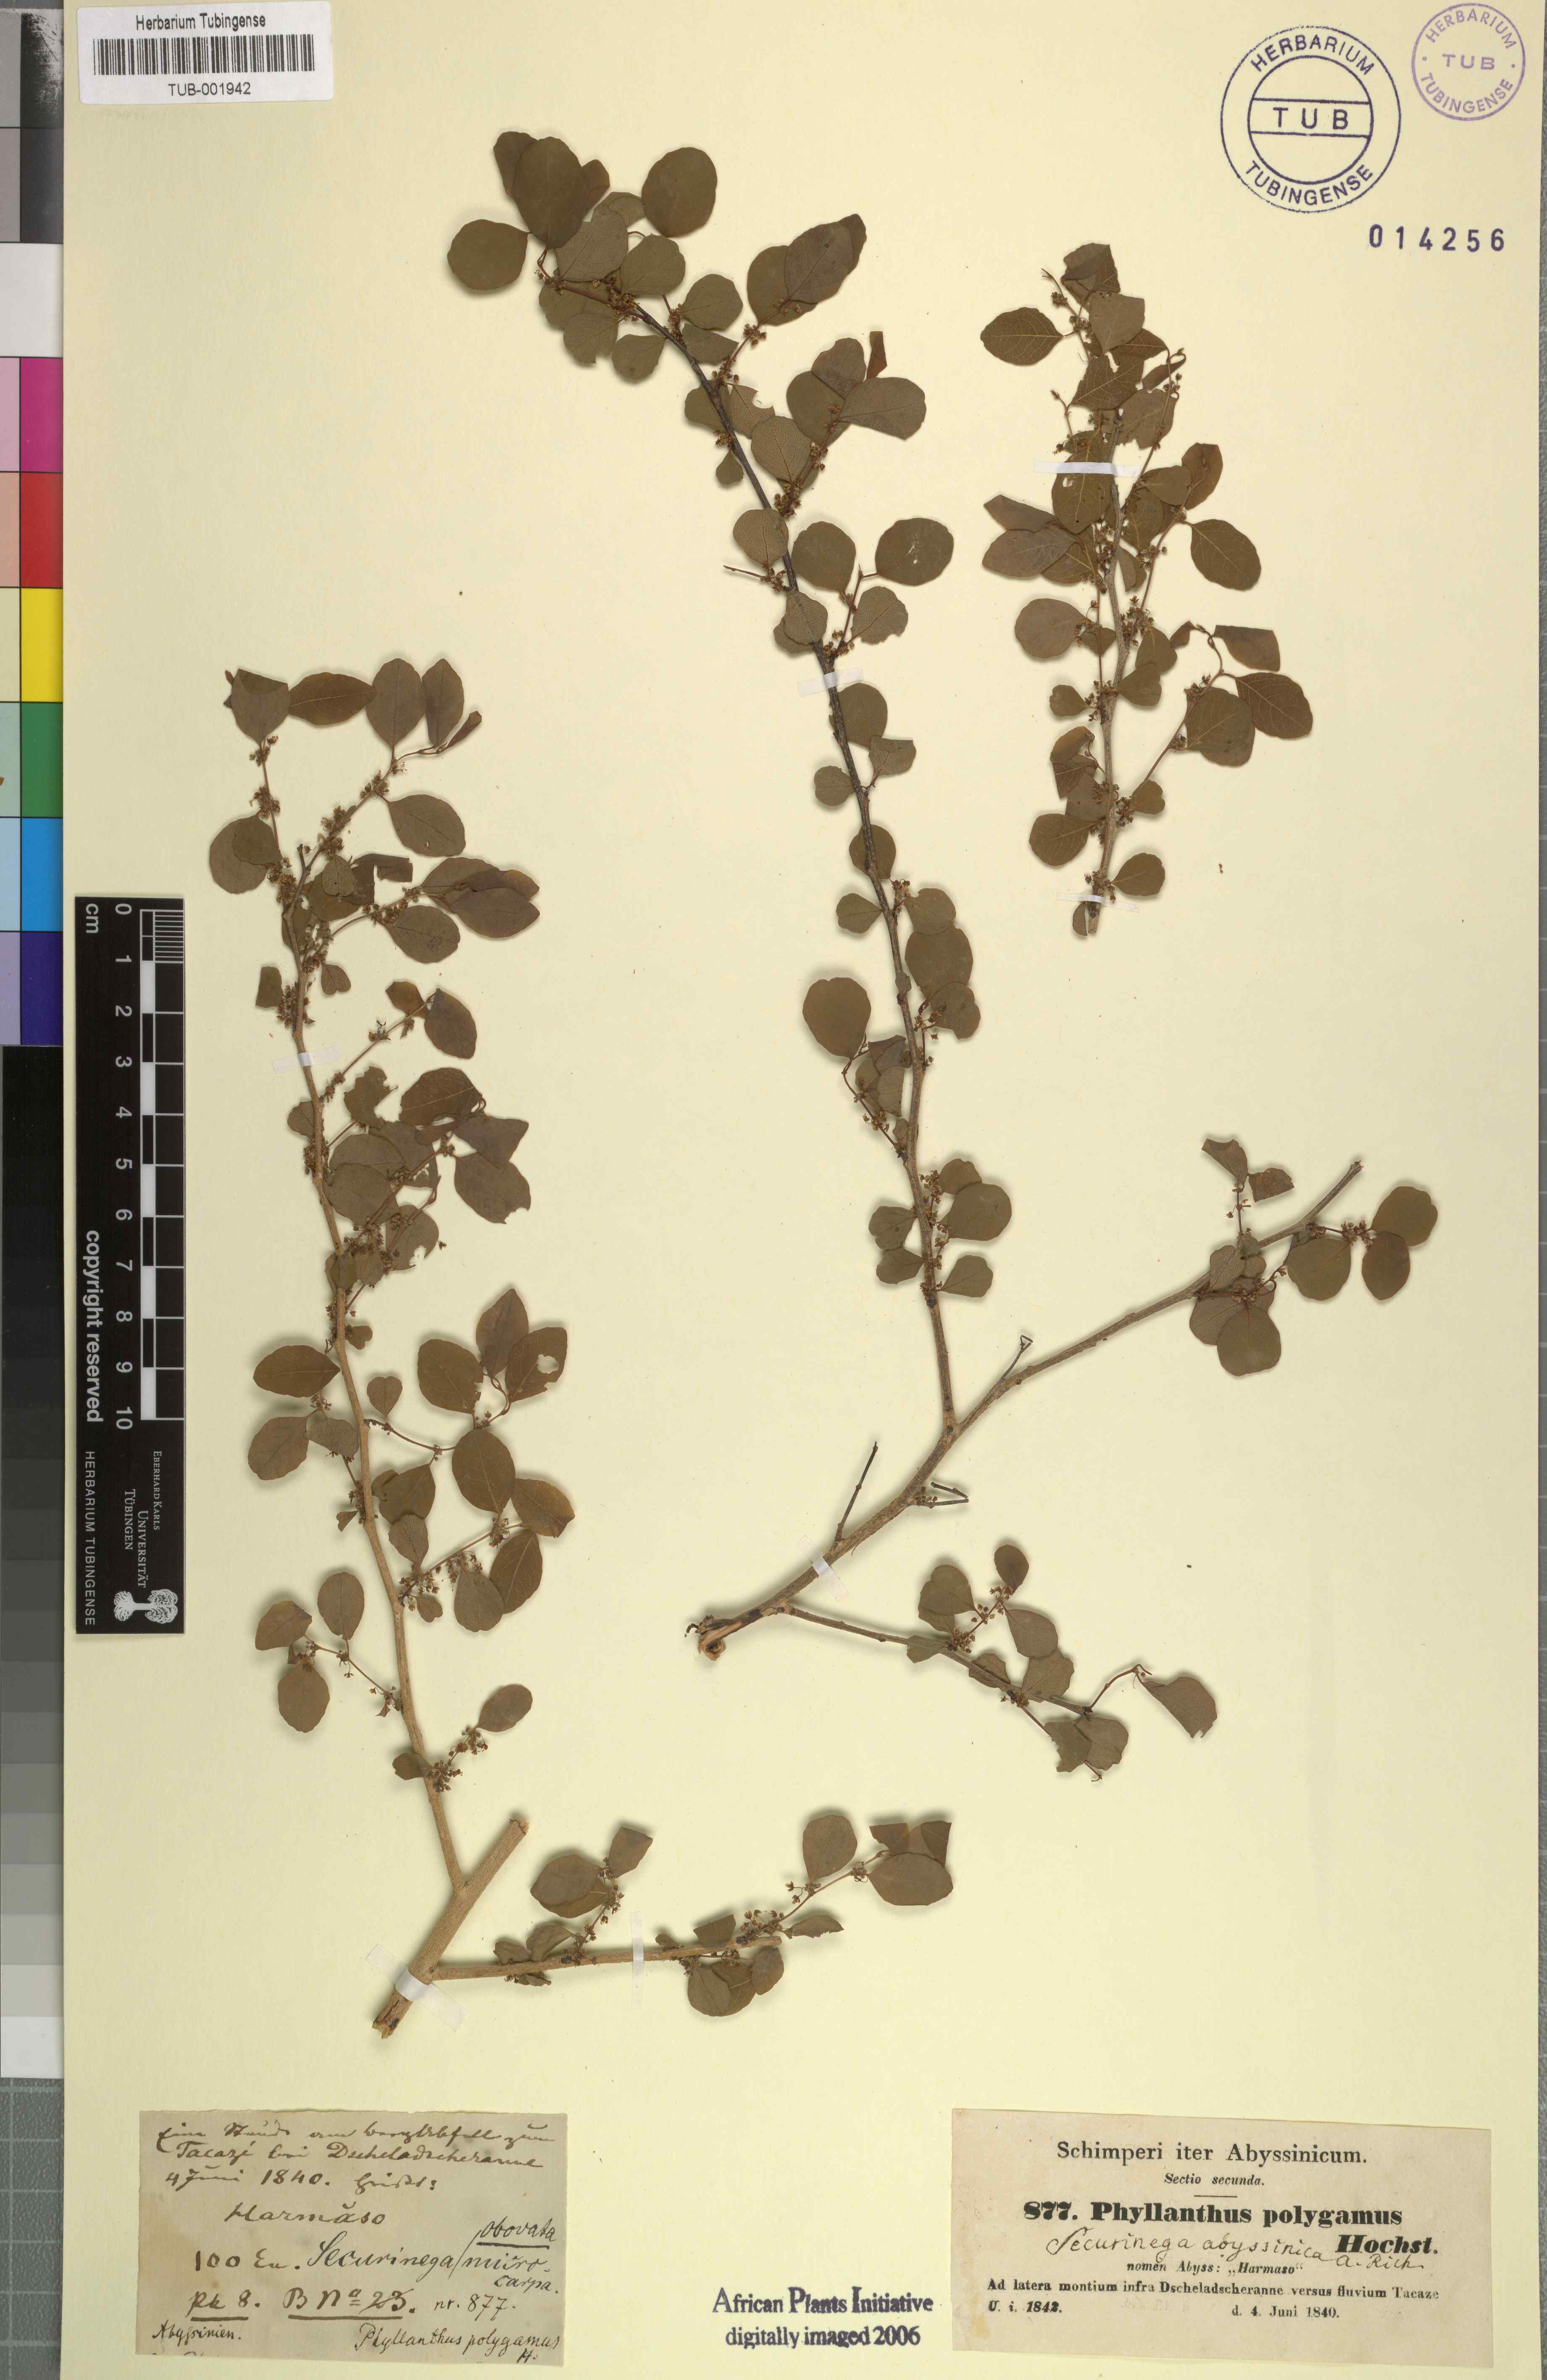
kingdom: Plantae
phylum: Tracheophyta
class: Magnoliopsida
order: Malpighiales
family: Phyllanthaceae
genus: Flueggea
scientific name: Flueggea virosa
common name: Common bushweed
